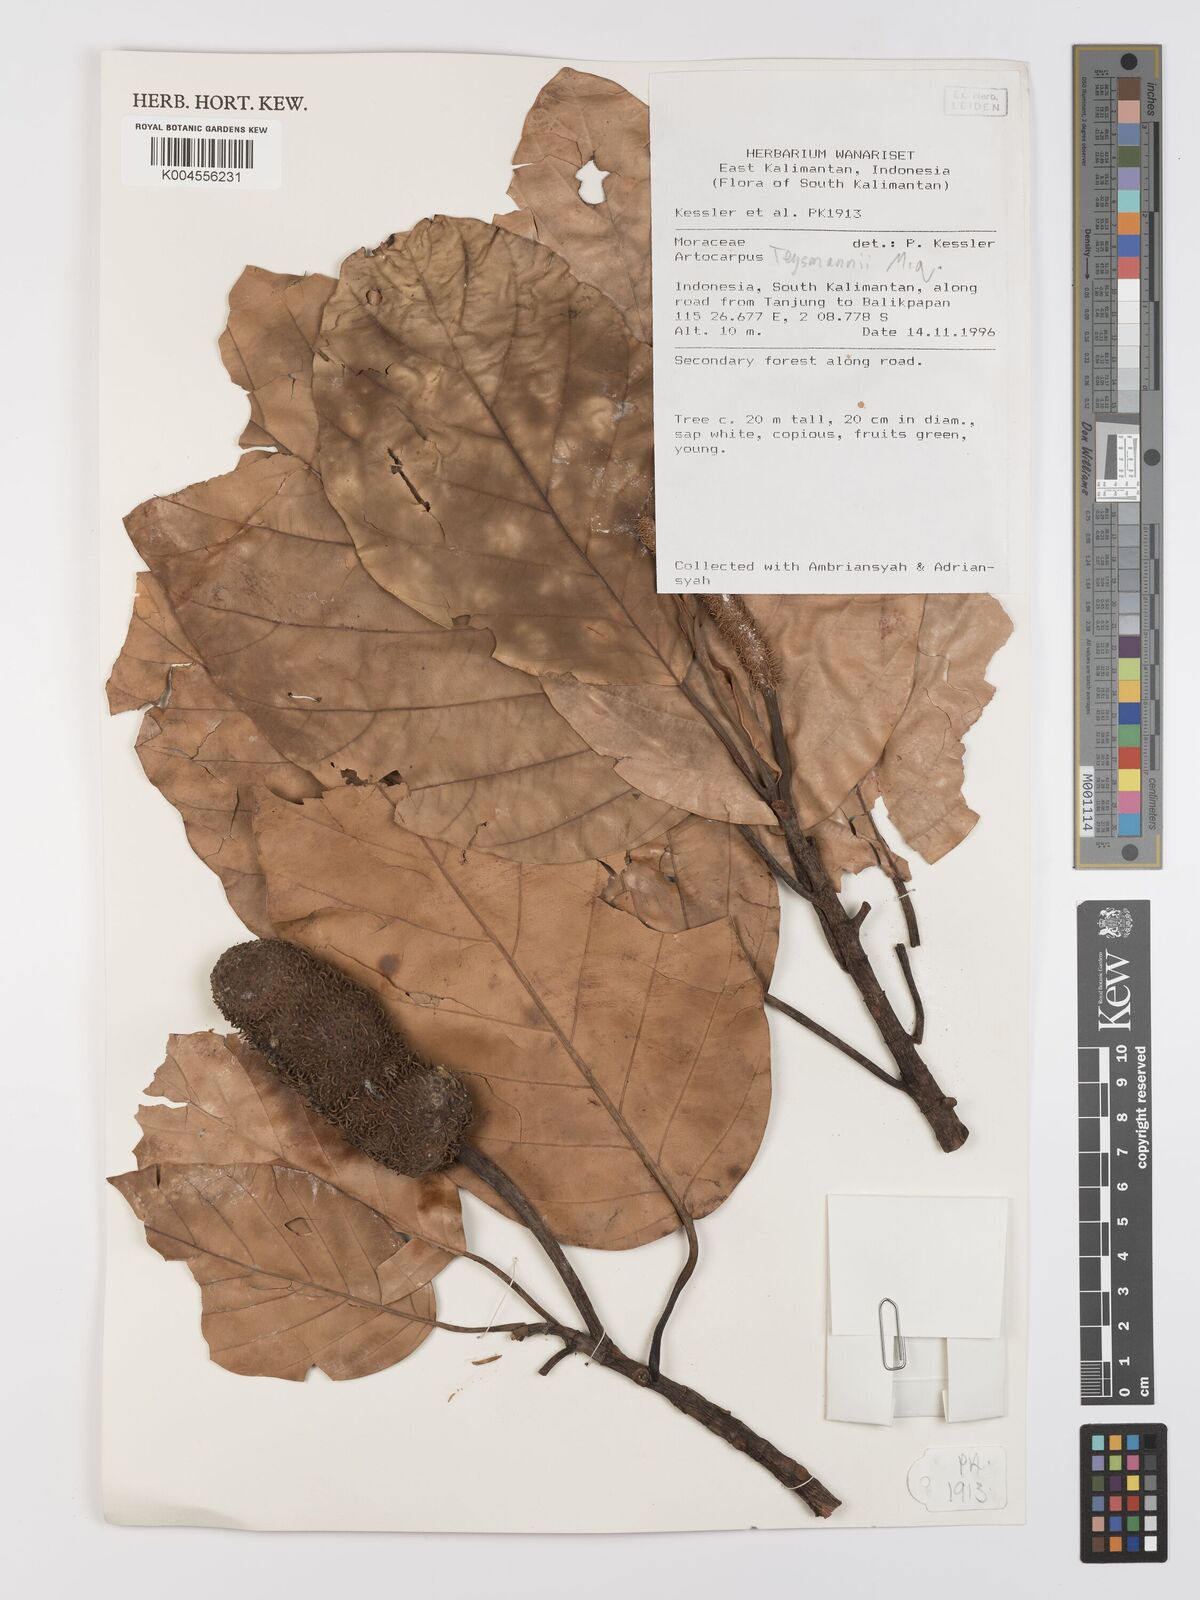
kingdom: Plantae
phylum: Tracheophyta
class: Magnoliopsida
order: Rosales
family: Moraceae
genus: Artocarpus
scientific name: Artocarpus teysmannii
